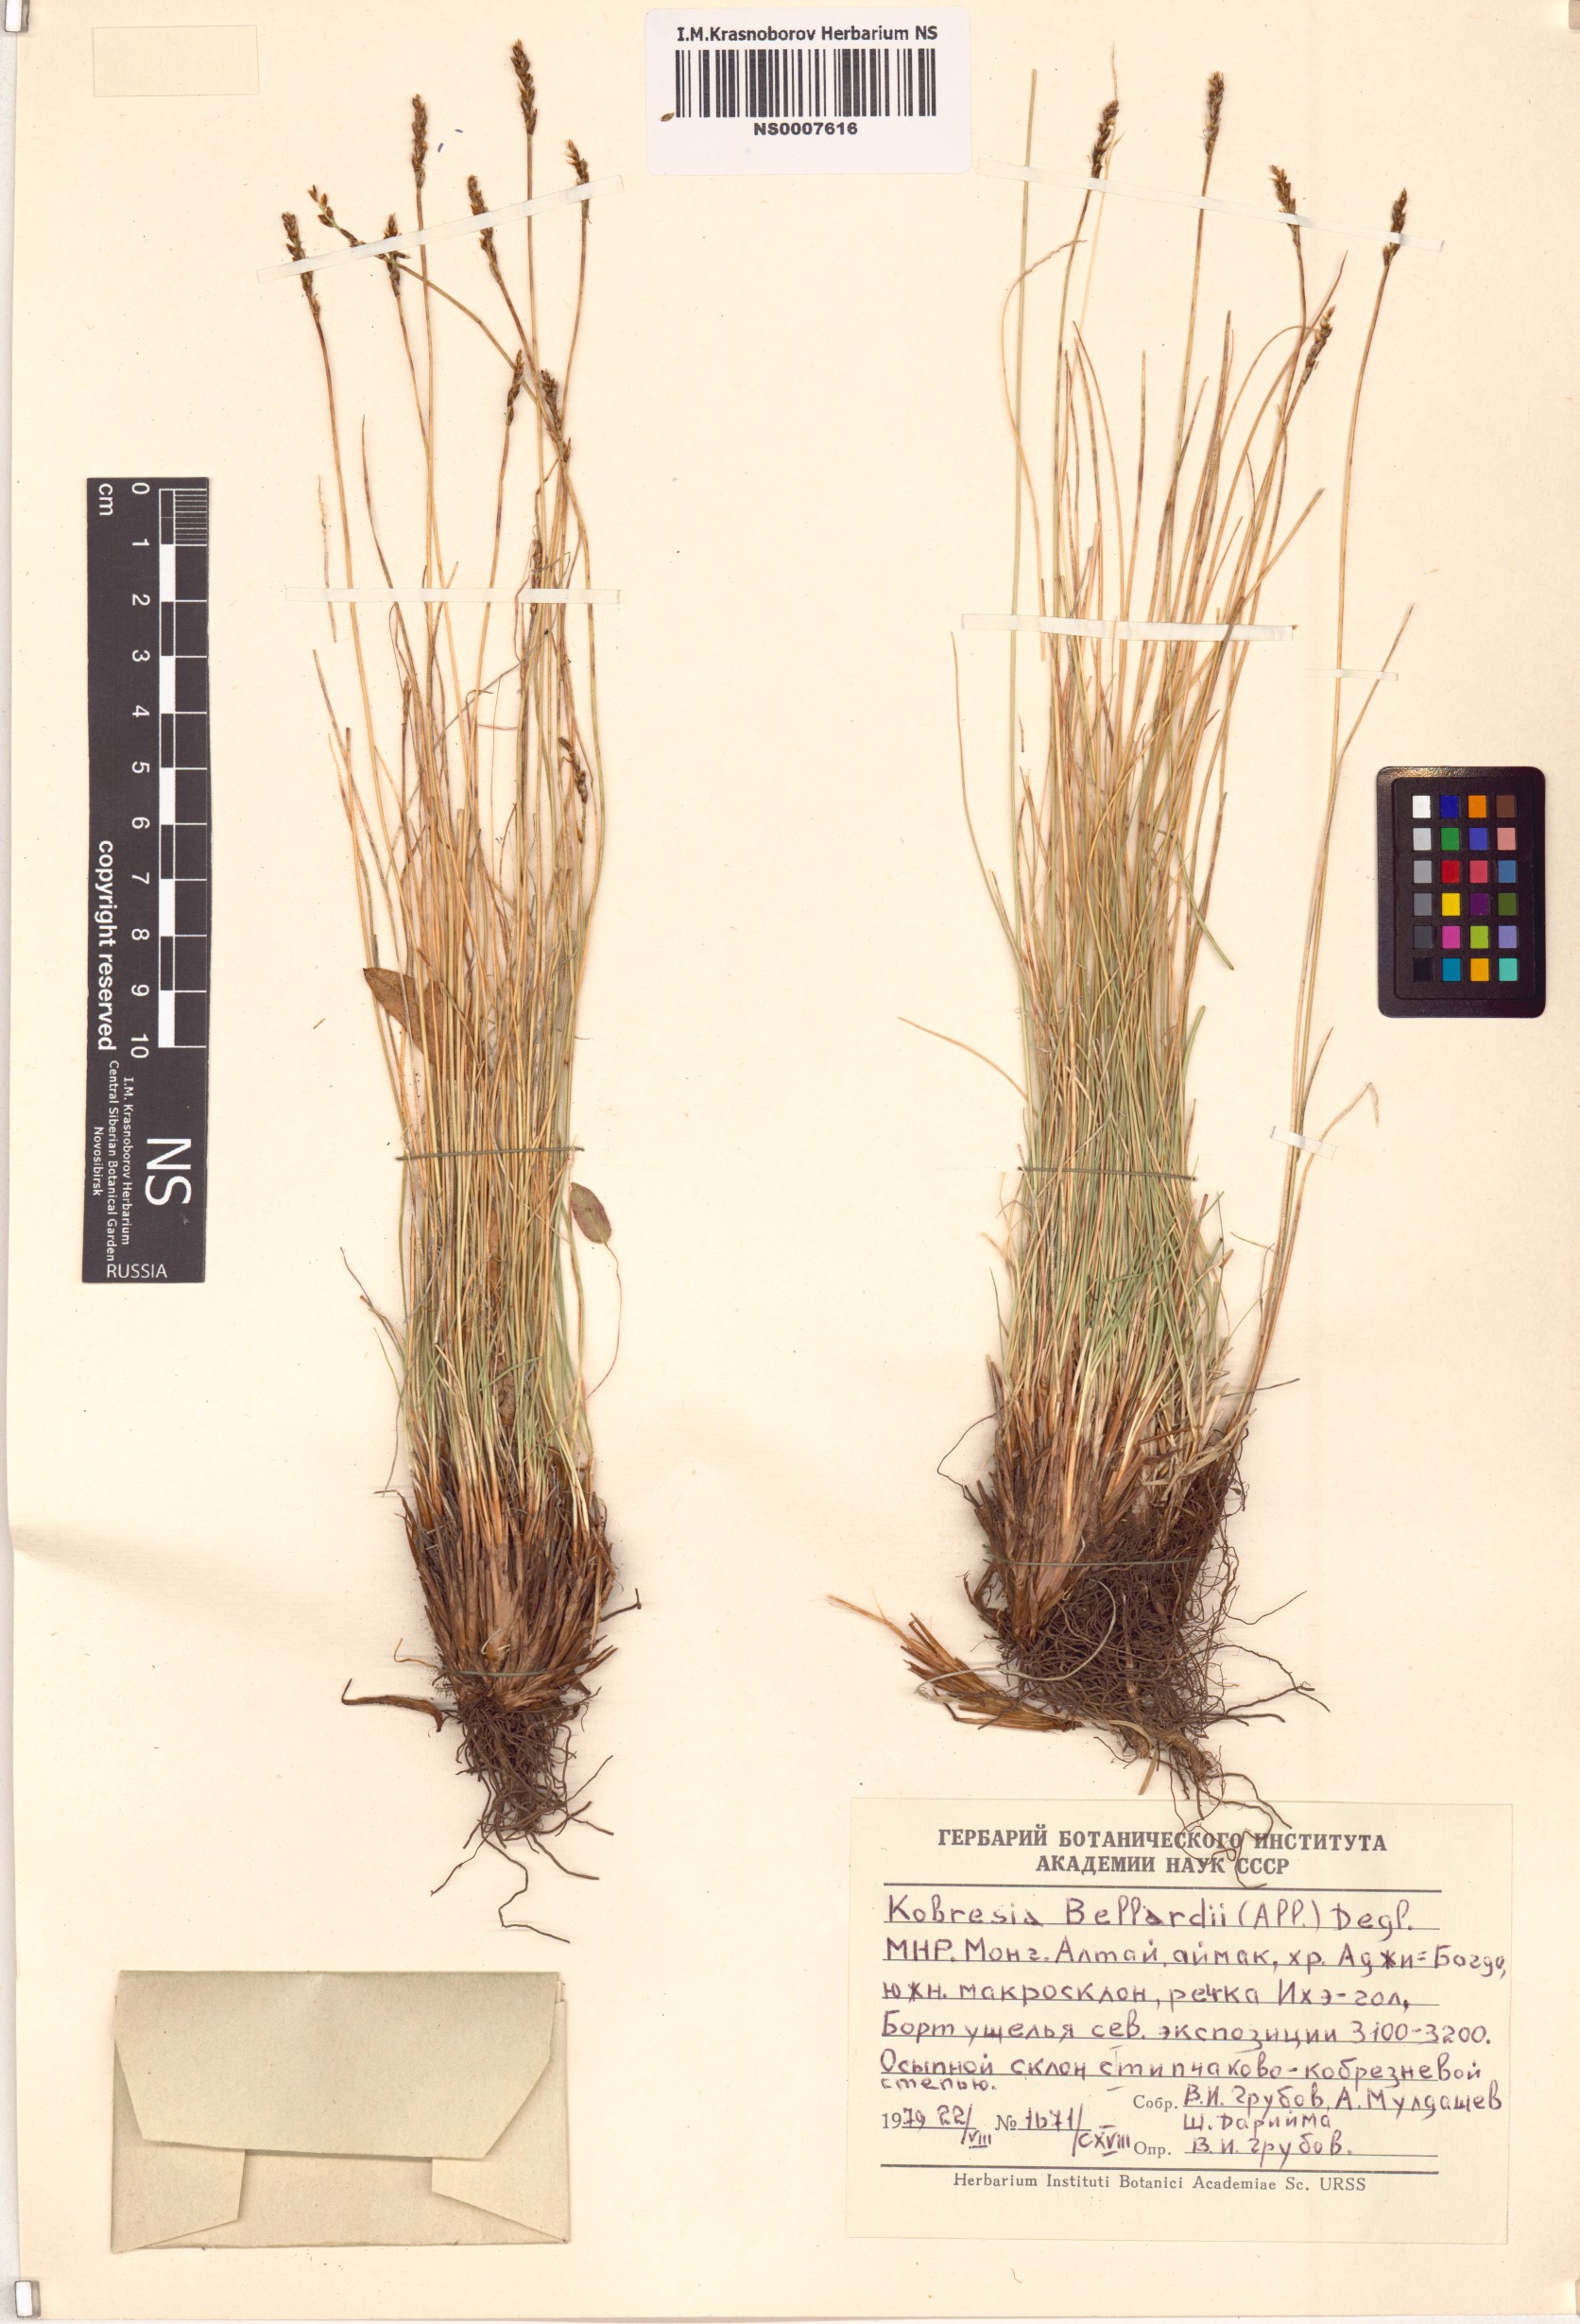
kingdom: Plantae
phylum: Tracheophyta
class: Liliopsida
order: Poales
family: Cyperaceae
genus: Carex
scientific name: Carex myosuroides
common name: Bellard's bog sedge
